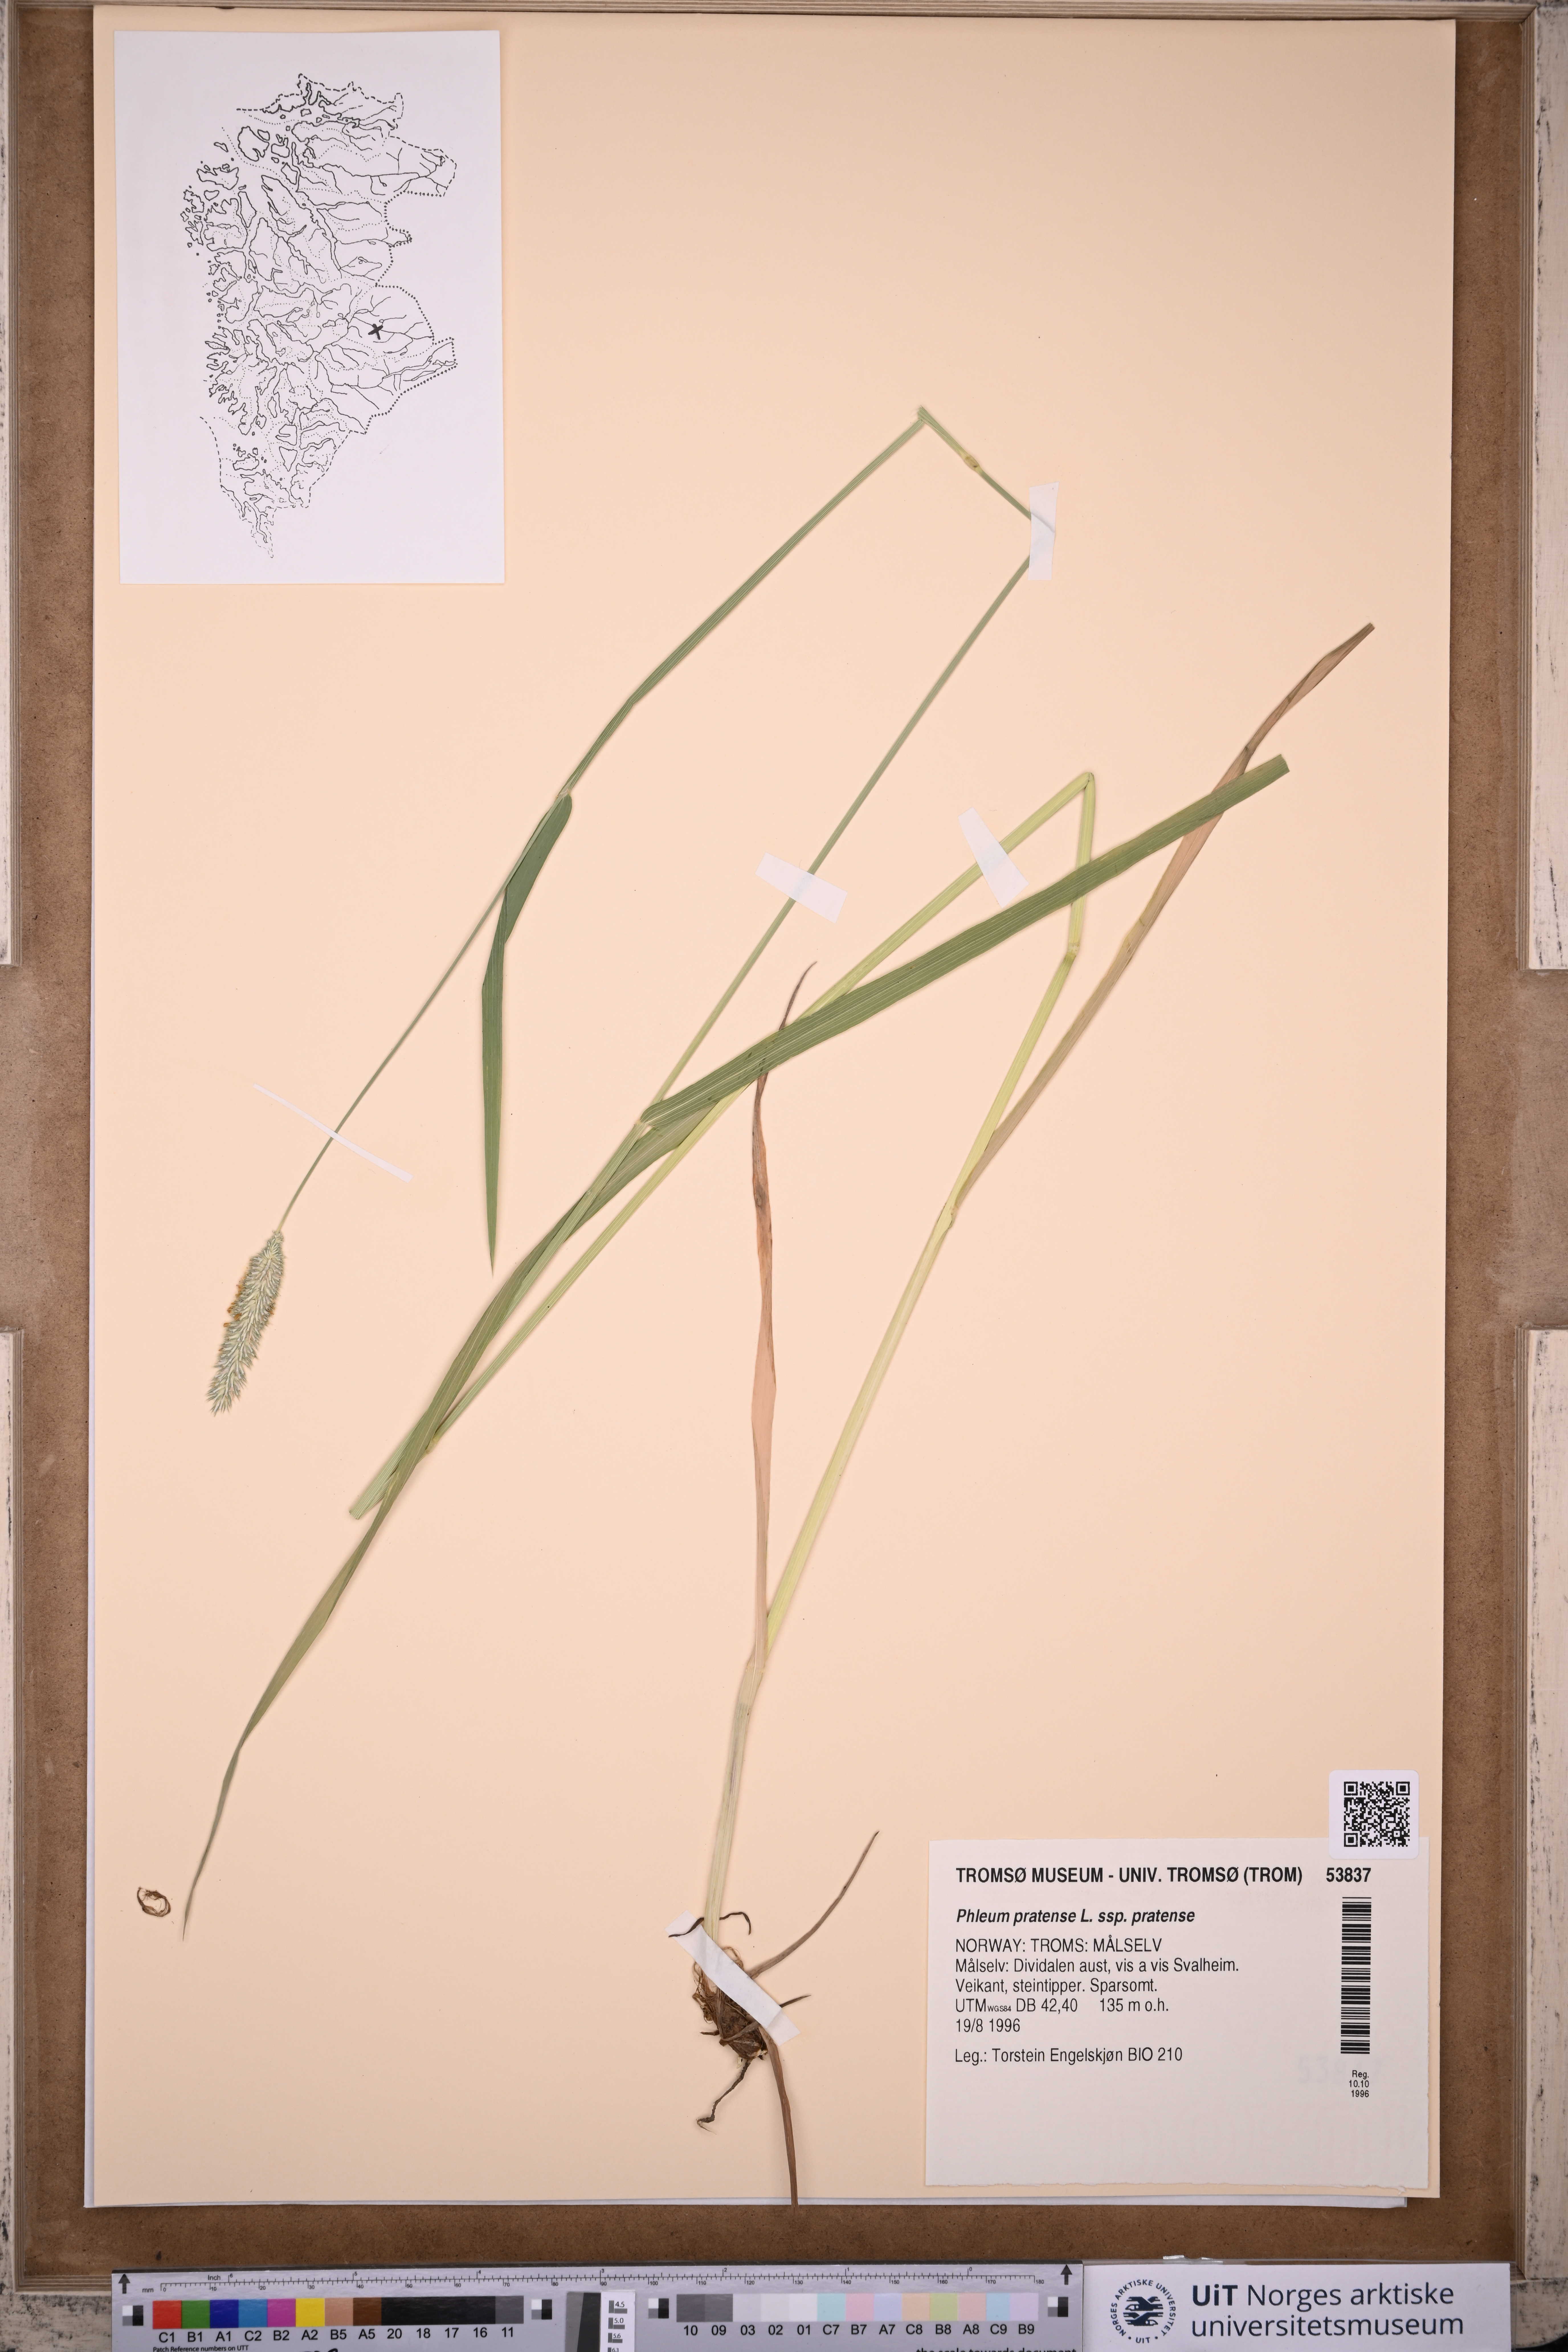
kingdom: Plantae
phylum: Tracheophyta
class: Liliopsida
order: Poales
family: Poaceae
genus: Phleum
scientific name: Phleum pratense
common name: Timothy grass
